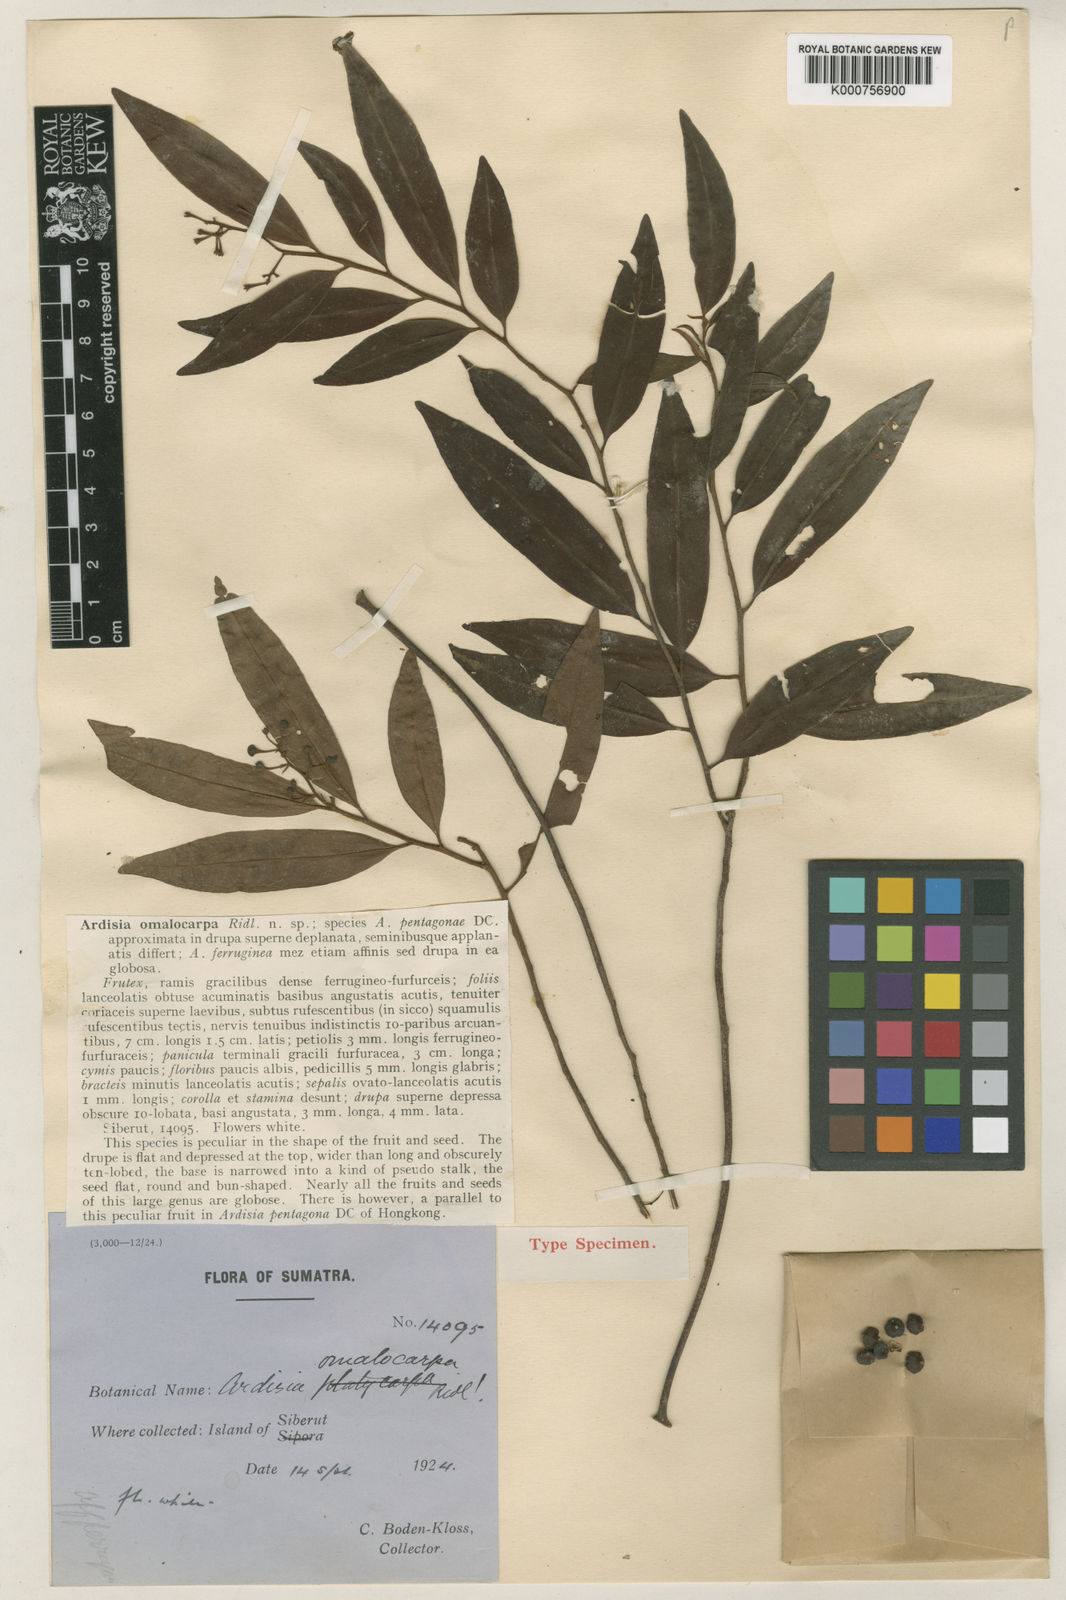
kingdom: Plantae
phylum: Tracheophyta
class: Magnoliopsida
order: Ericales
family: Primulaceae
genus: Ardisia
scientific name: Ardisia omalocarpa
